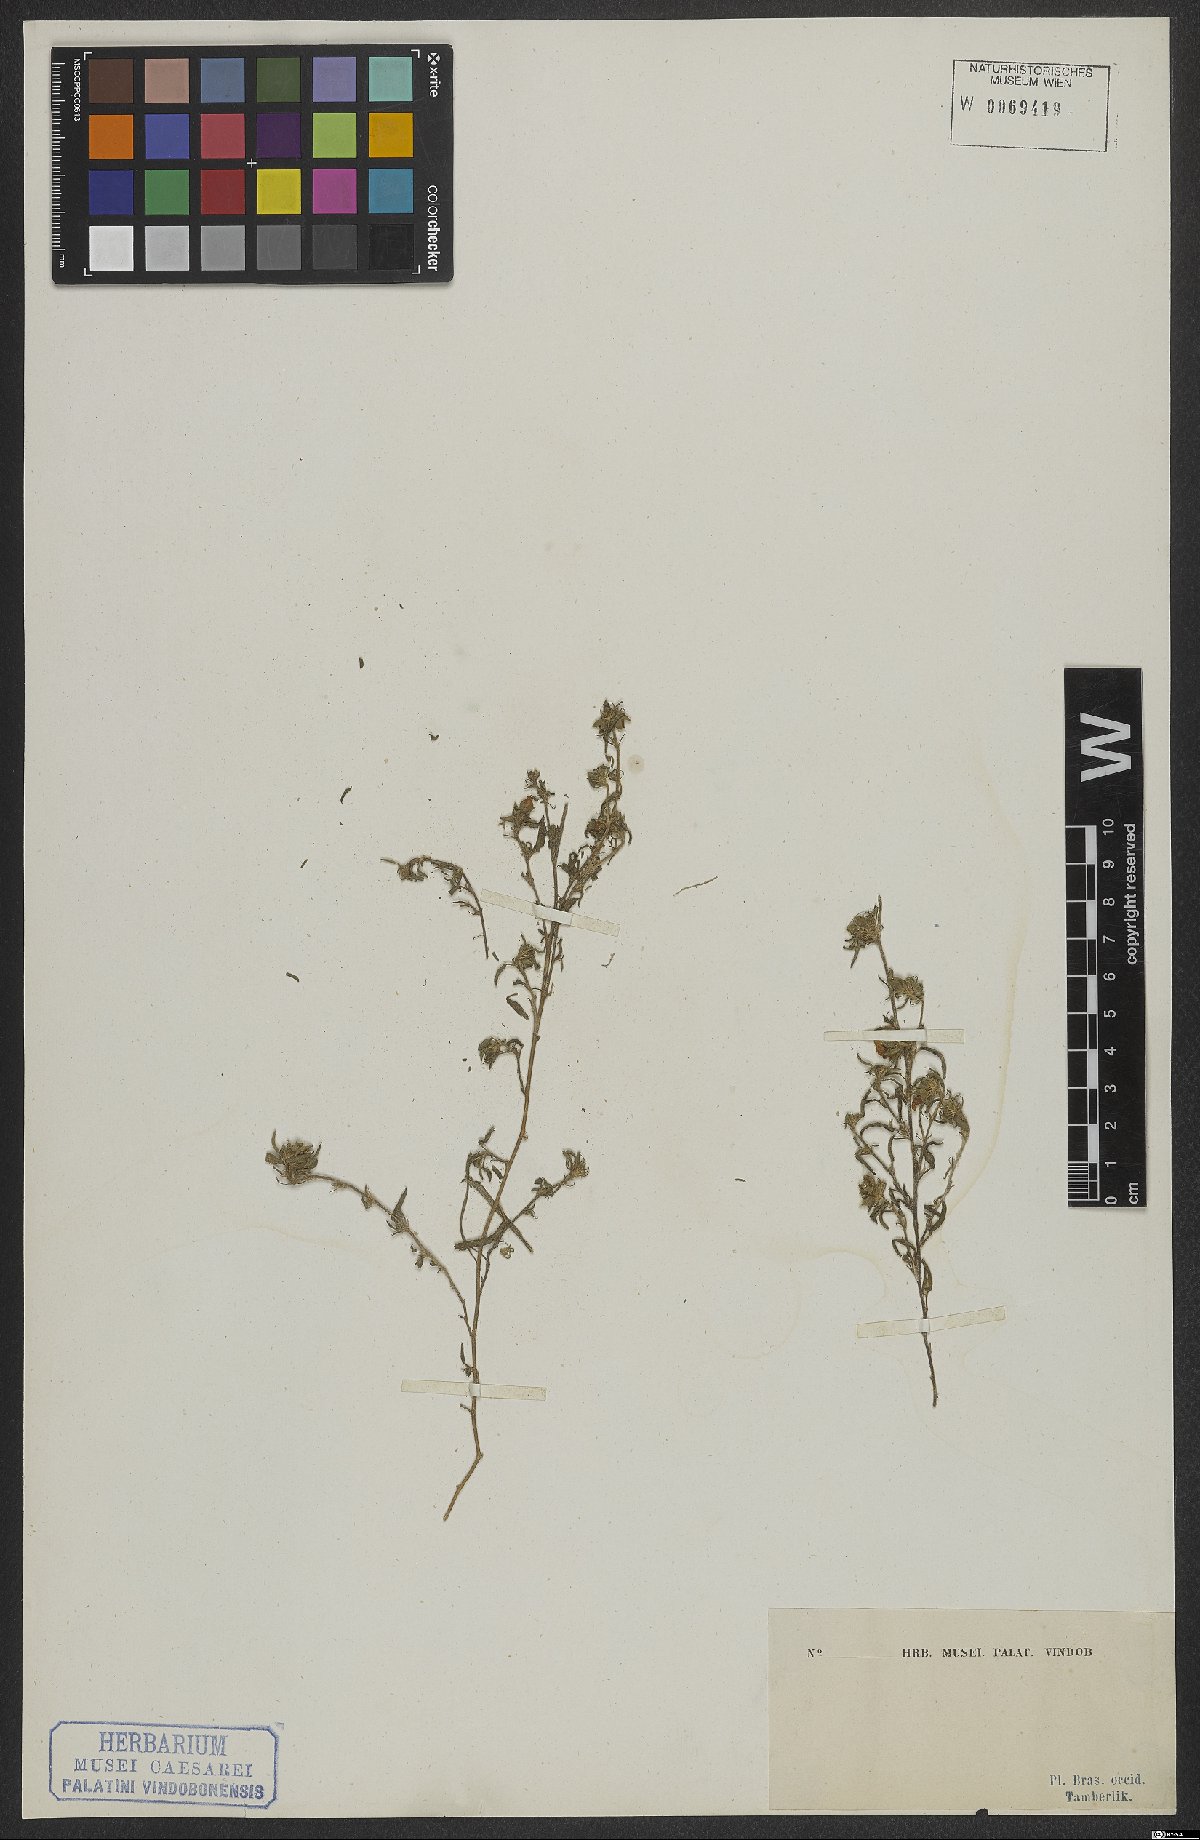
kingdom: Plantae
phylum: Tracheophyta
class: Magnoliopsida
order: Malvales
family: Malvaceae
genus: Sida
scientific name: Sida ciliaris
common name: Bracted fanpetals
